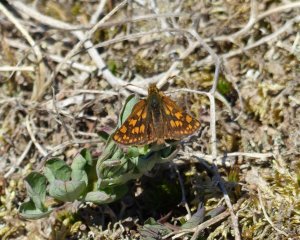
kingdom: Animalia
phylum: Arthropoda
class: Insecta
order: Lepidoptera
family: Hesperiidae
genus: Carterocephalus
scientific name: Carterocephalus palaemon
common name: Chequered Skipper
